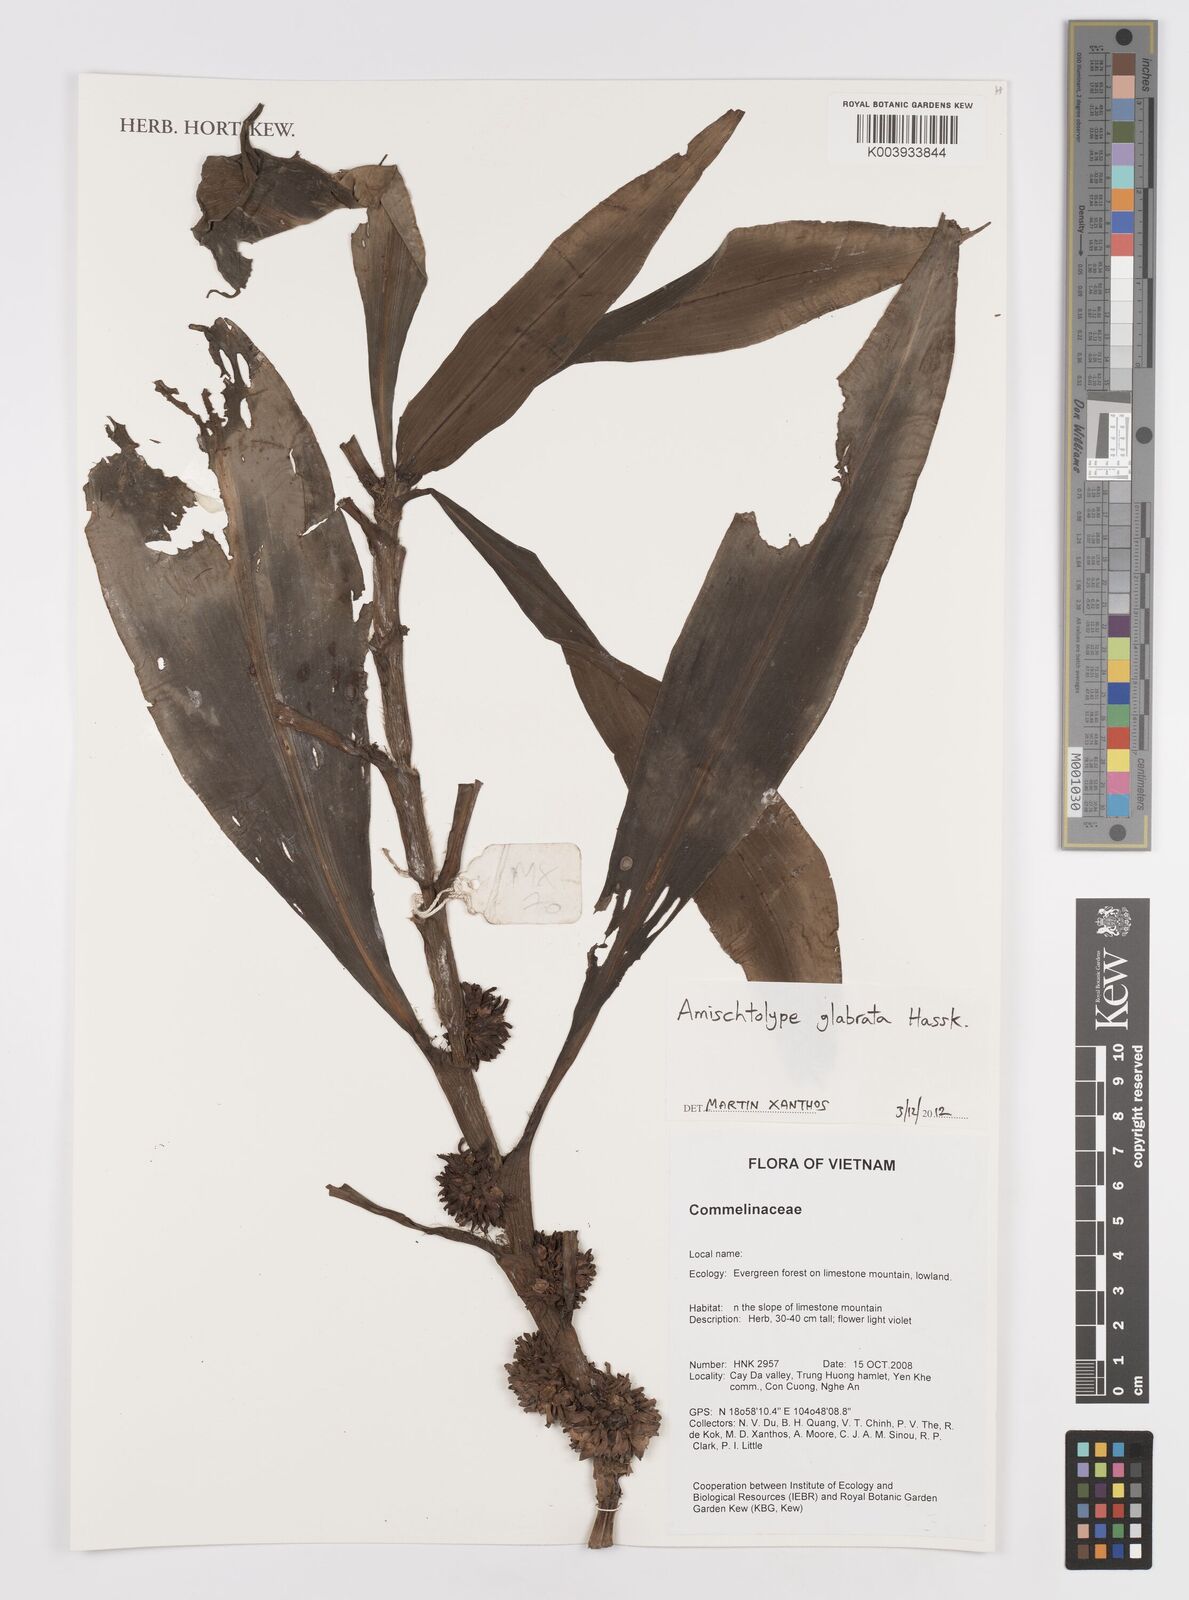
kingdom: Plantae
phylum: Tracheophyta
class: Liliopsida
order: Commelinales
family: Commelinaceae
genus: Amischotolype
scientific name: Amischotolype glabrata
